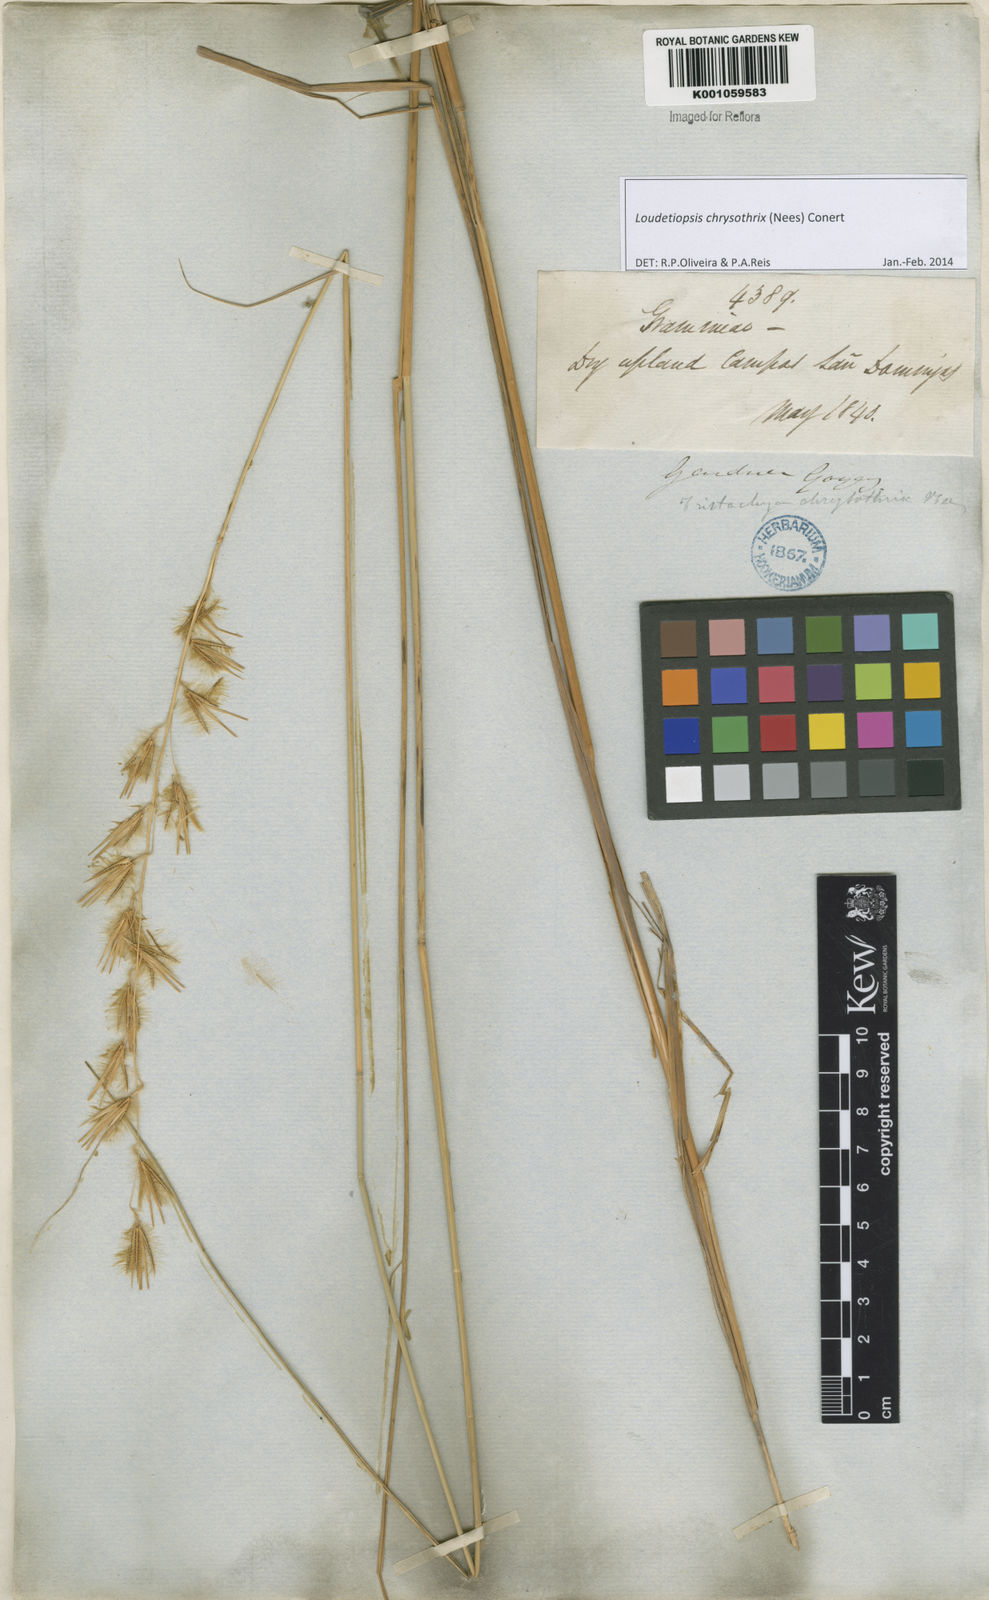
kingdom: Plantae
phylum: Tracheophyta
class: Liliopsida
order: Poales
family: Poaceae
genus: Loudetiopsis
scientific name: Loudetiopsis chrysothrix
